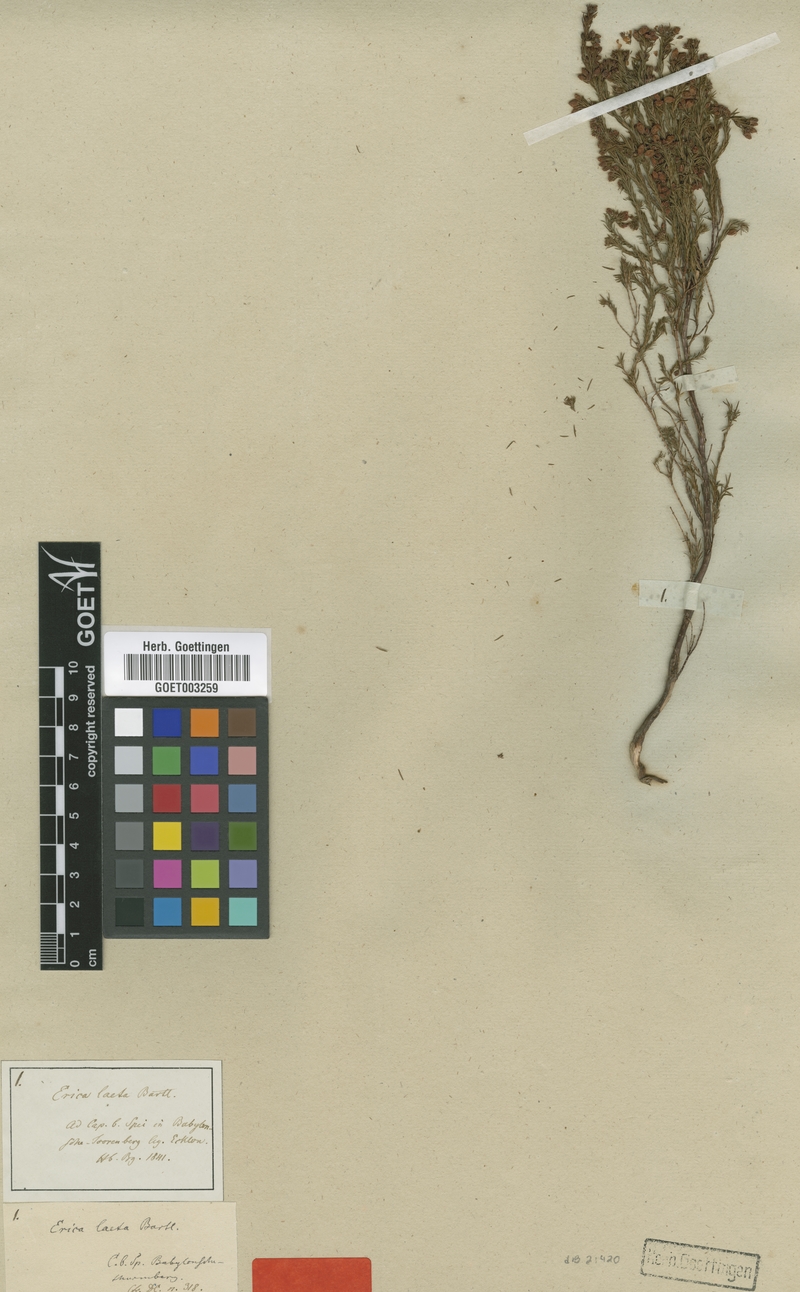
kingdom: Plantae
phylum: Tracheophyta
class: Magnoliopsida
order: Ericales
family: Ericaceae
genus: Erica
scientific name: Erica laeta
